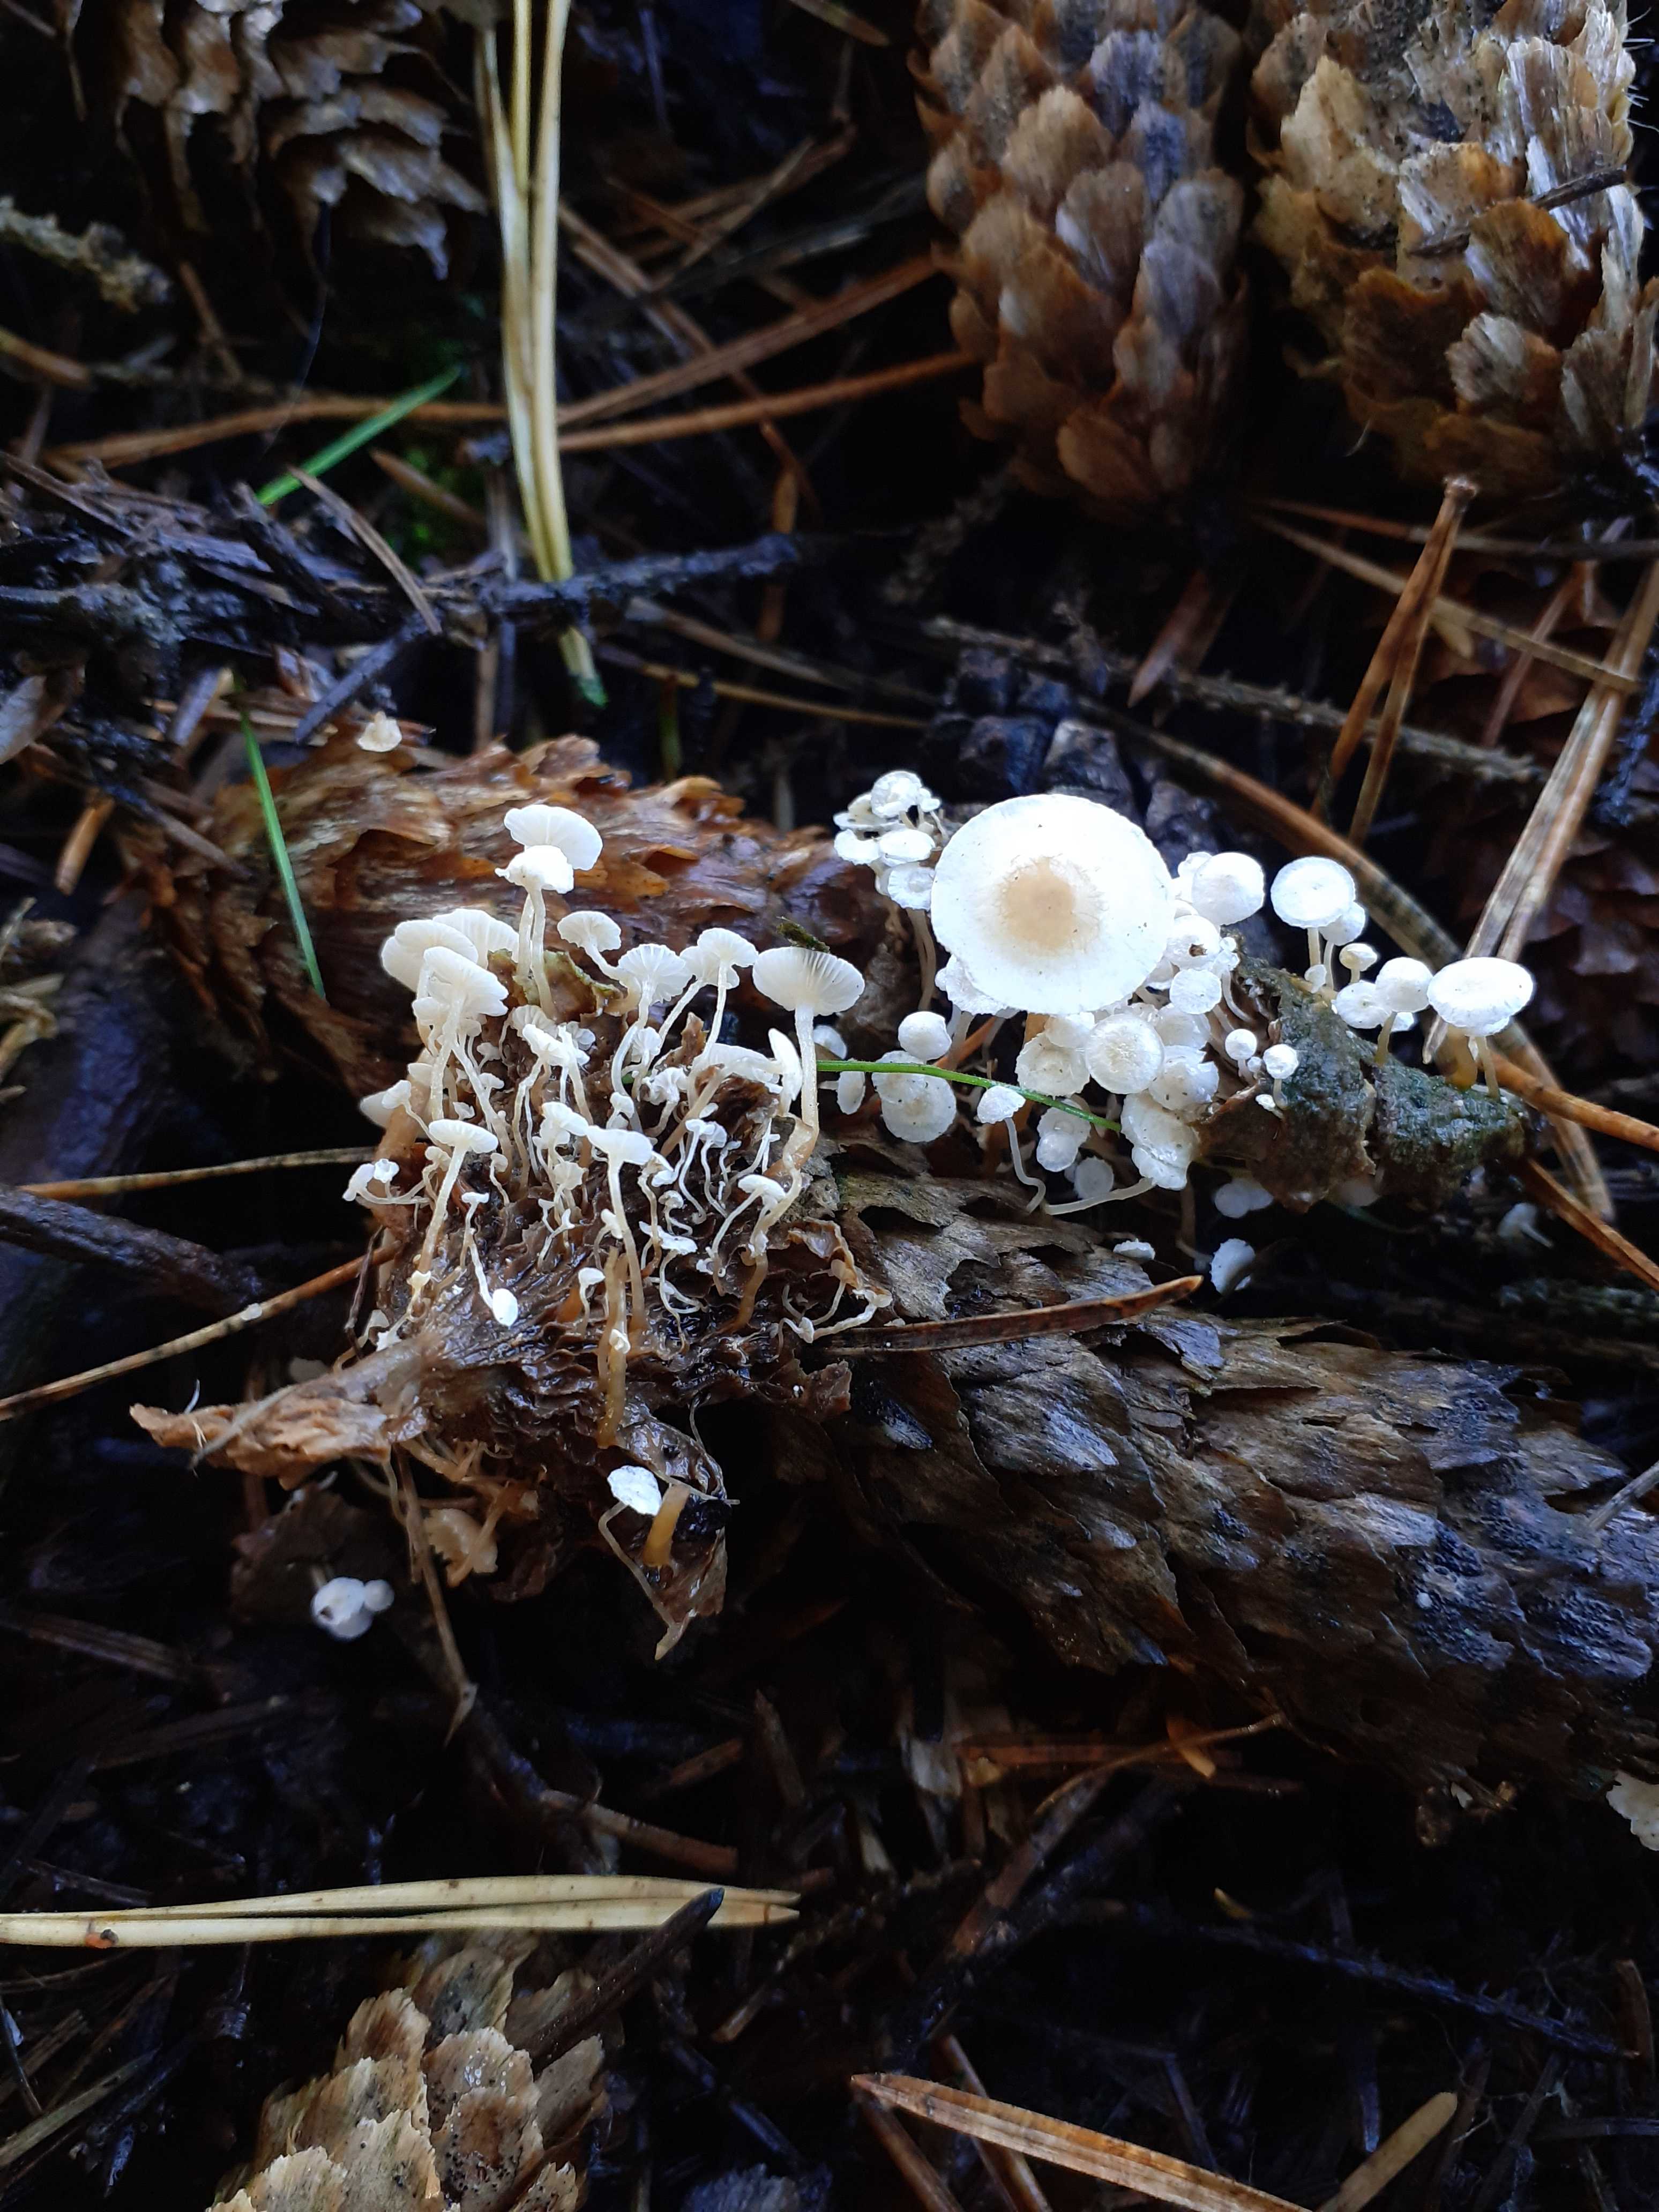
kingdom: Fungi
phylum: Basidiomycota
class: Agaricomycetes
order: Agaricales
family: Tricholomataceae
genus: Collybia
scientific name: Collybia cirrhata
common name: silke-lighat
